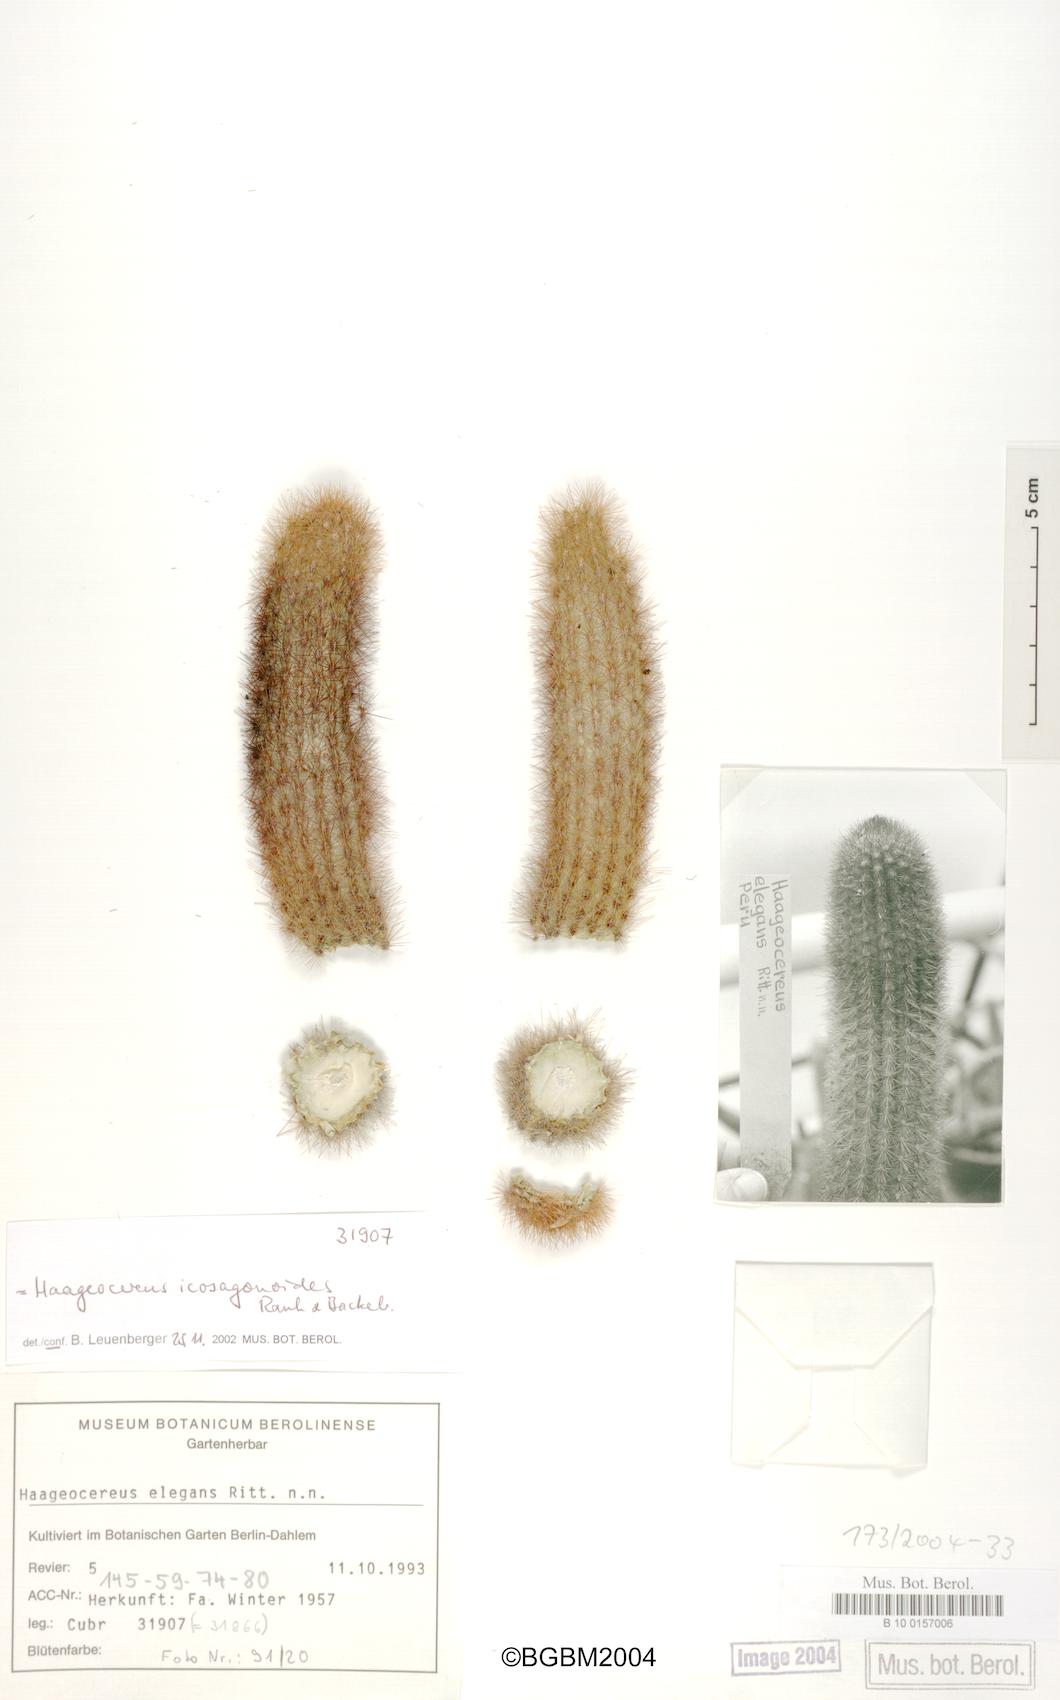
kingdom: Plantae
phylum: Tracheophyta
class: Magnoliopsida
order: Caryophyllales
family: Cactaceae
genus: Haageocereus
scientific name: Haageocereus versicolor
